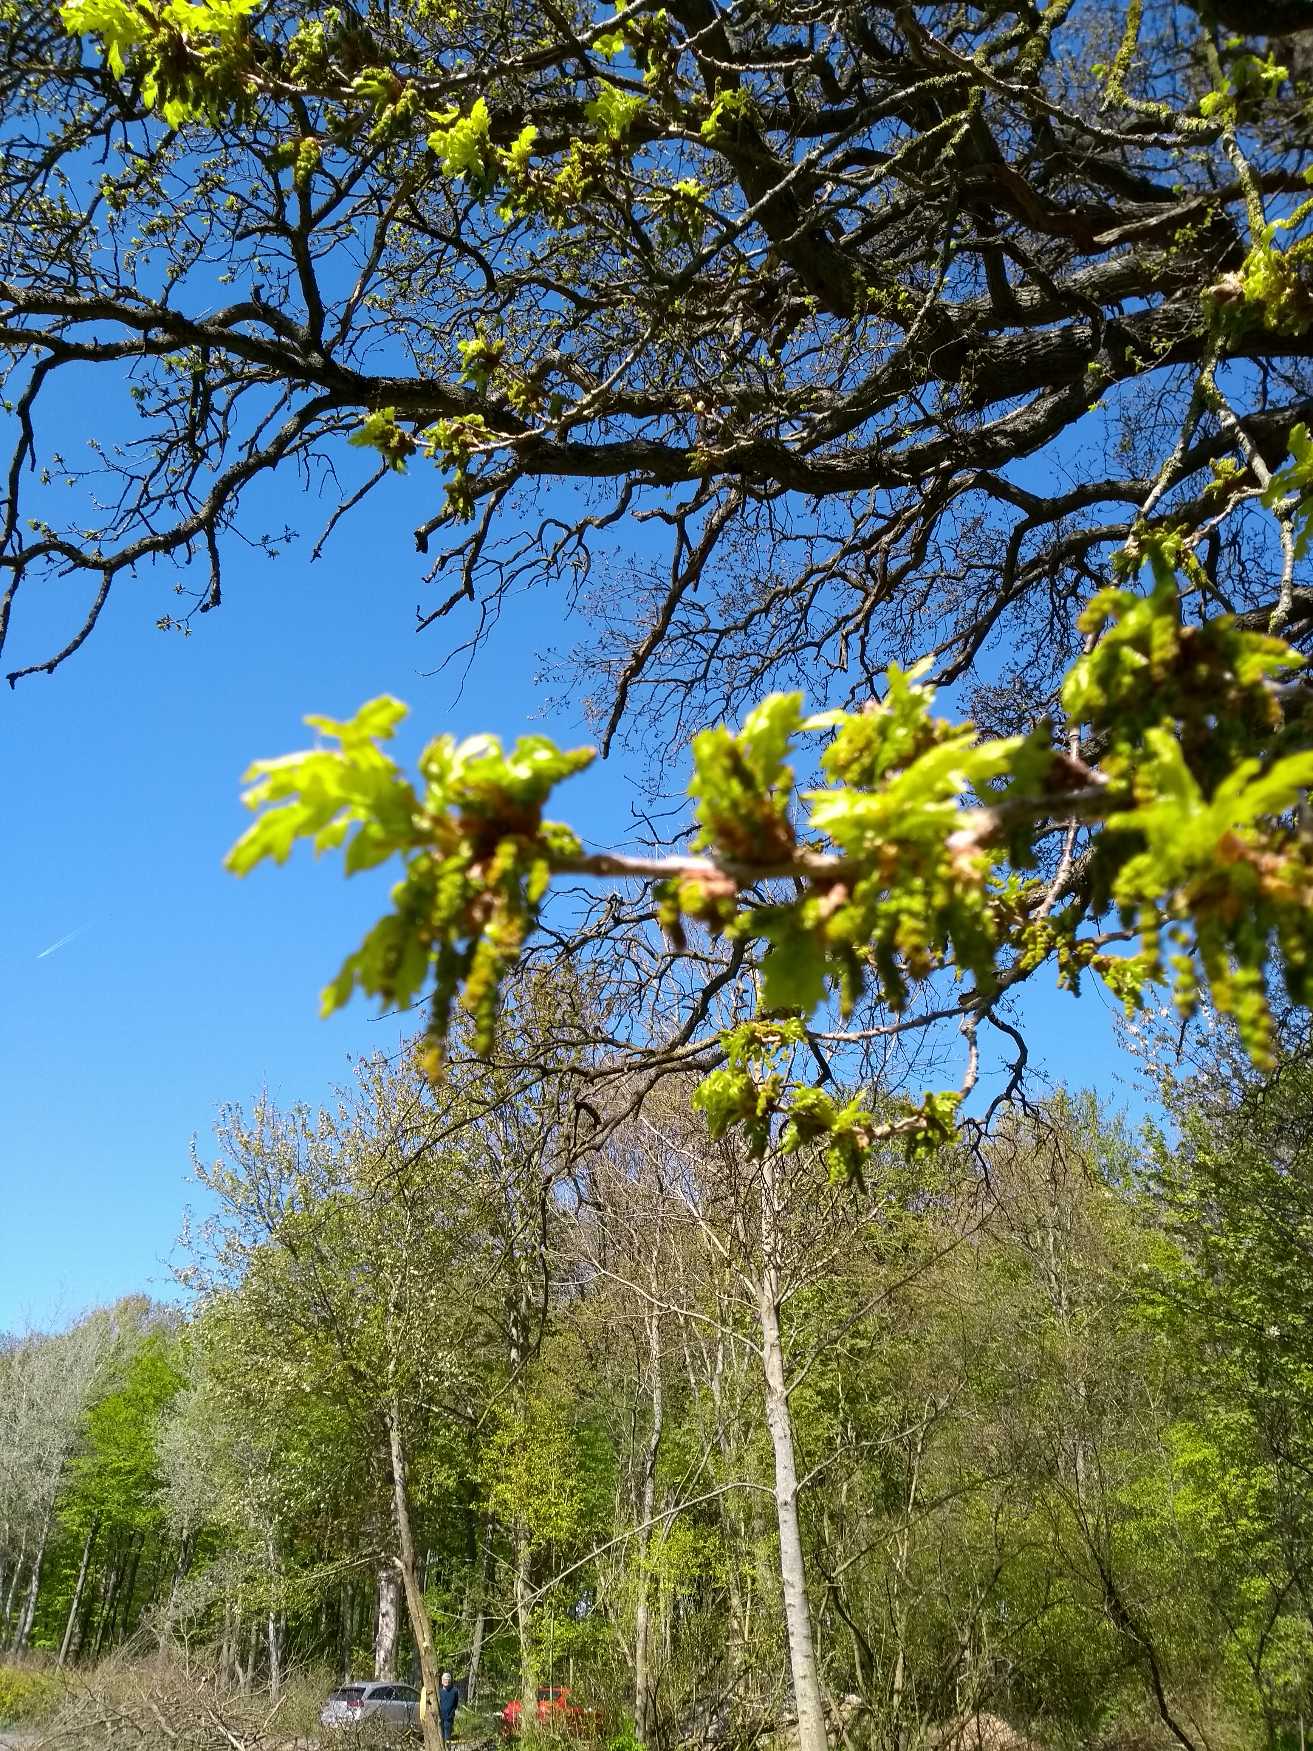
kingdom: Plantae
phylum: Tracheophyta
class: Magnoliopsida
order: Fagales
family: Fagaceae
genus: Quercus
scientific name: Quercus robur
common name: Stilk-eg/almindelig eg
